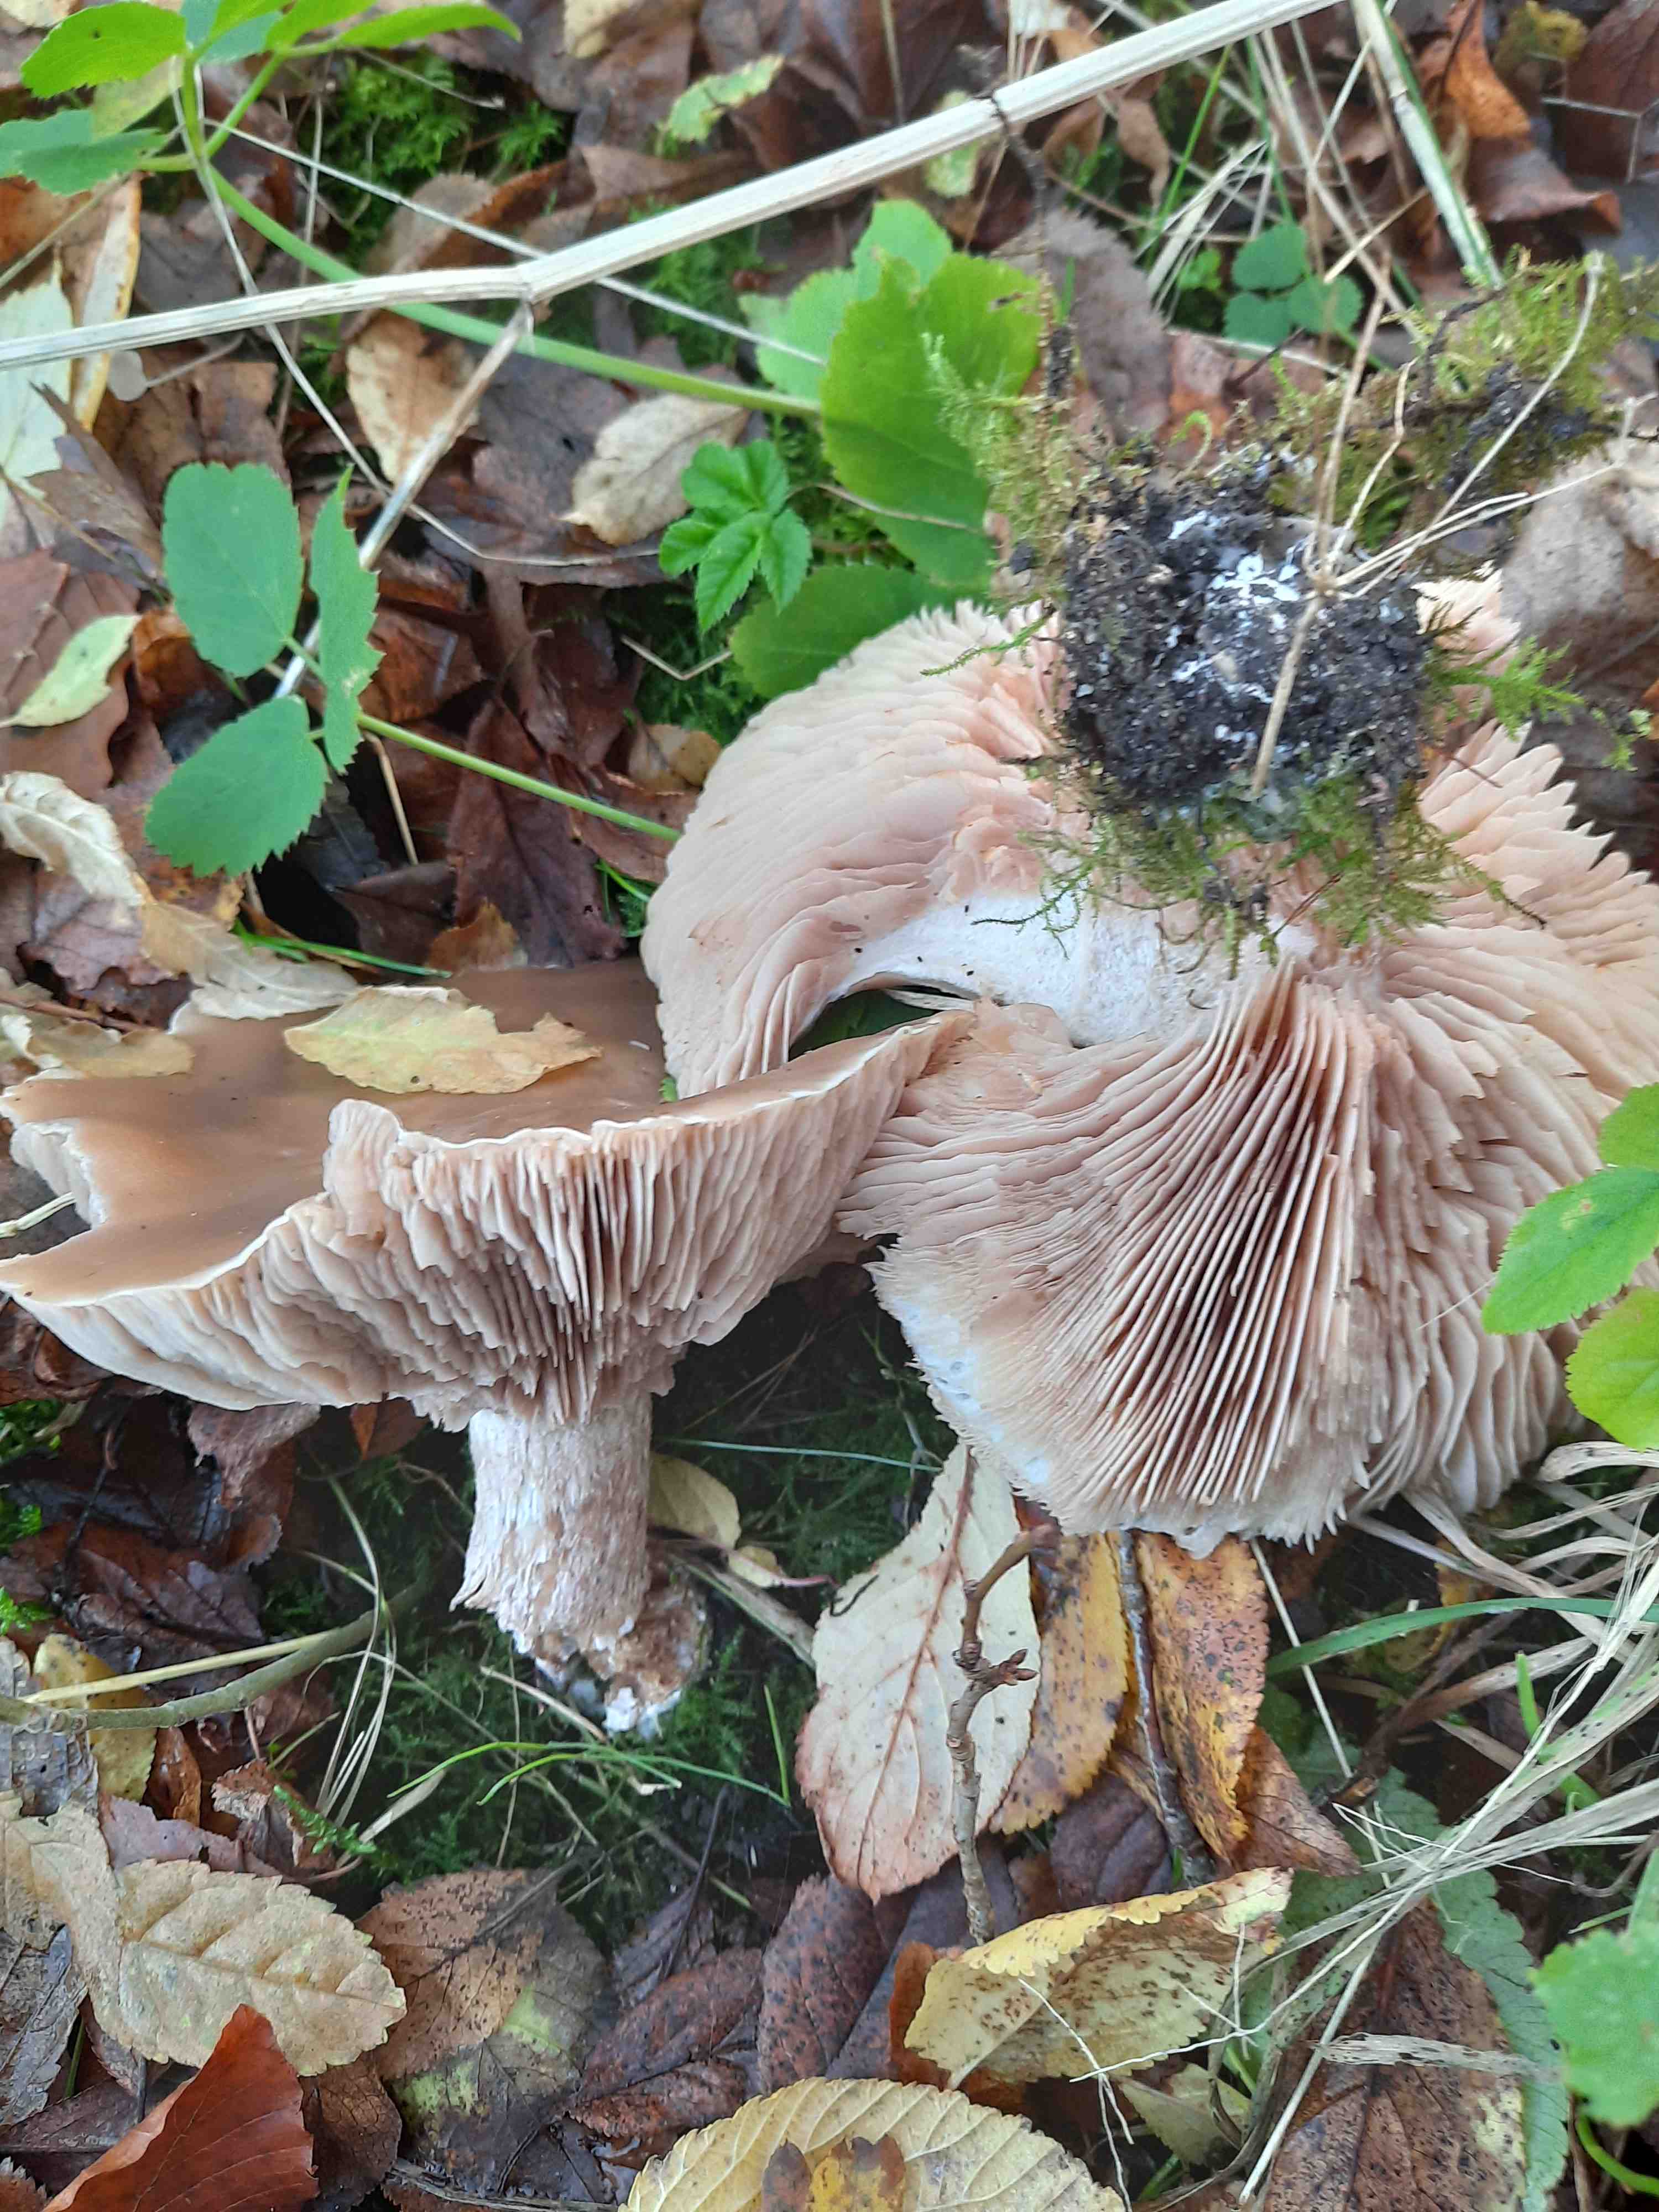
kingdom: Fungi
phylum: Basidiomycota
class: Agaricomycetes
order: Agaricales
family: Tricholomataceae
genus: Lepista
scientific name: Lepista personata
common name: bleg hekseringshat
